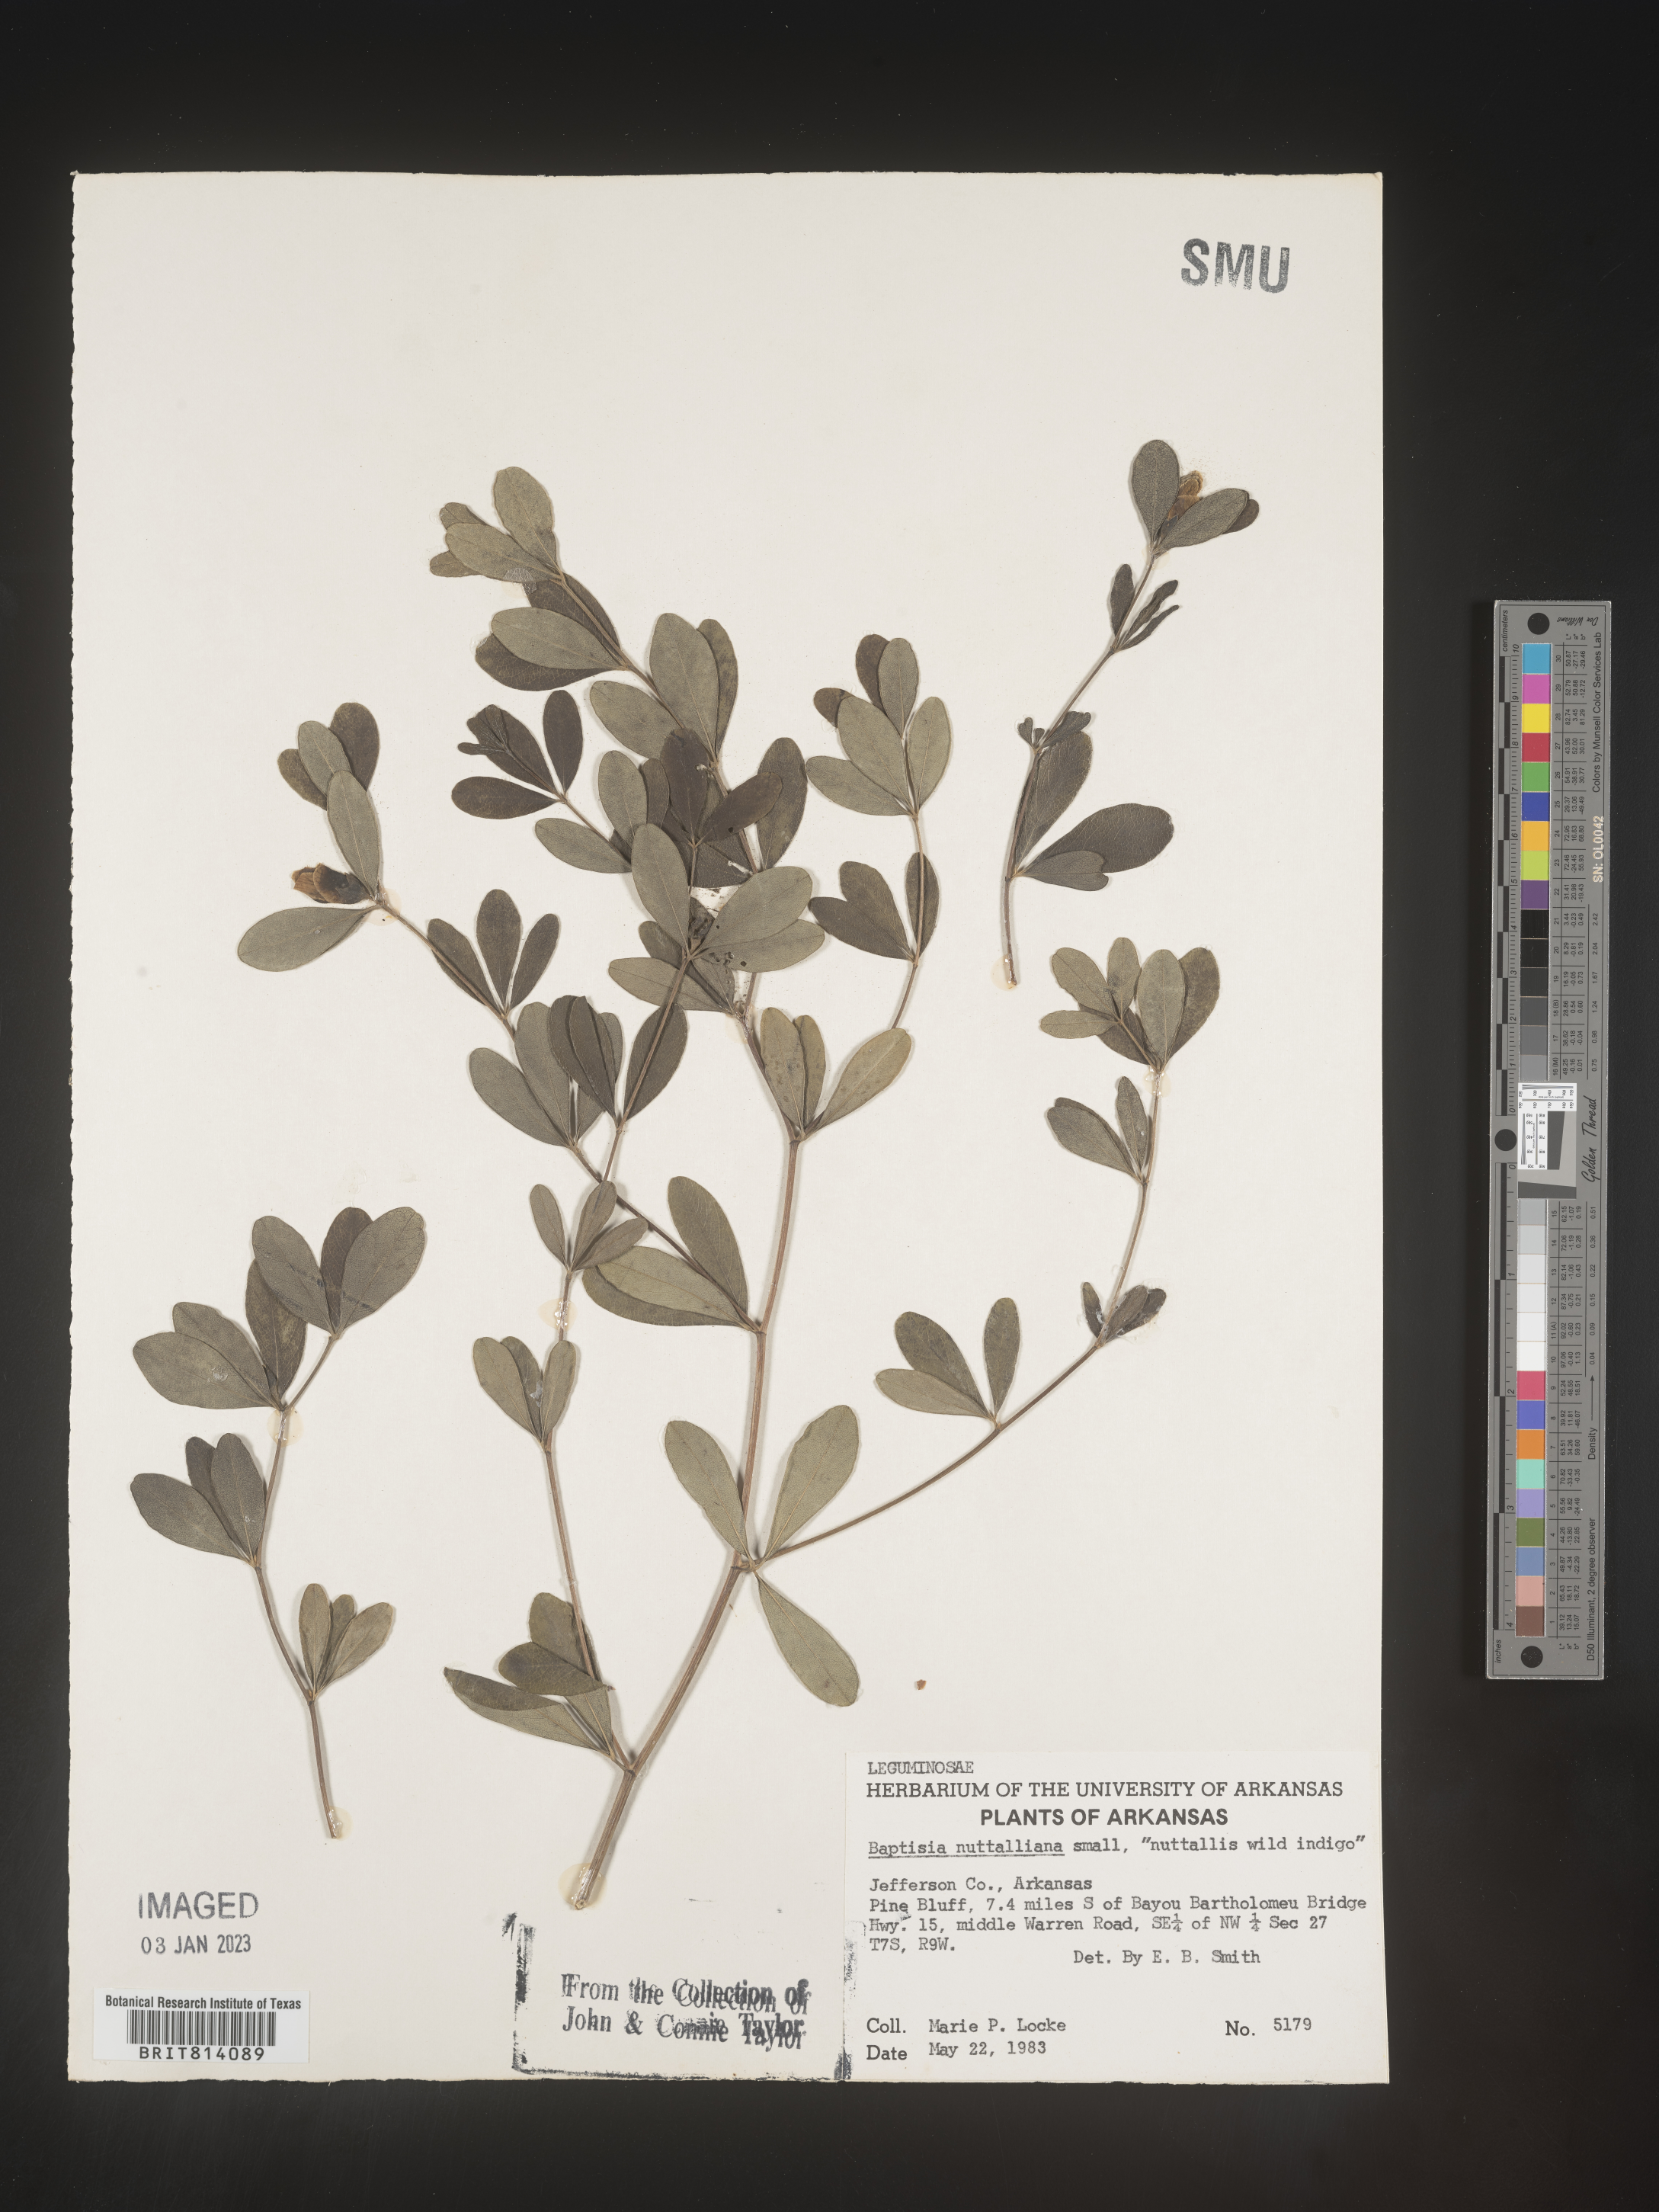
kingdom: Plantae
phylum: Tracheophyta
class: Magnoliopsida
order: Fabales
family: Fabaceae
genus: Baptisia
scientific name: Baptisia nuttalliana
